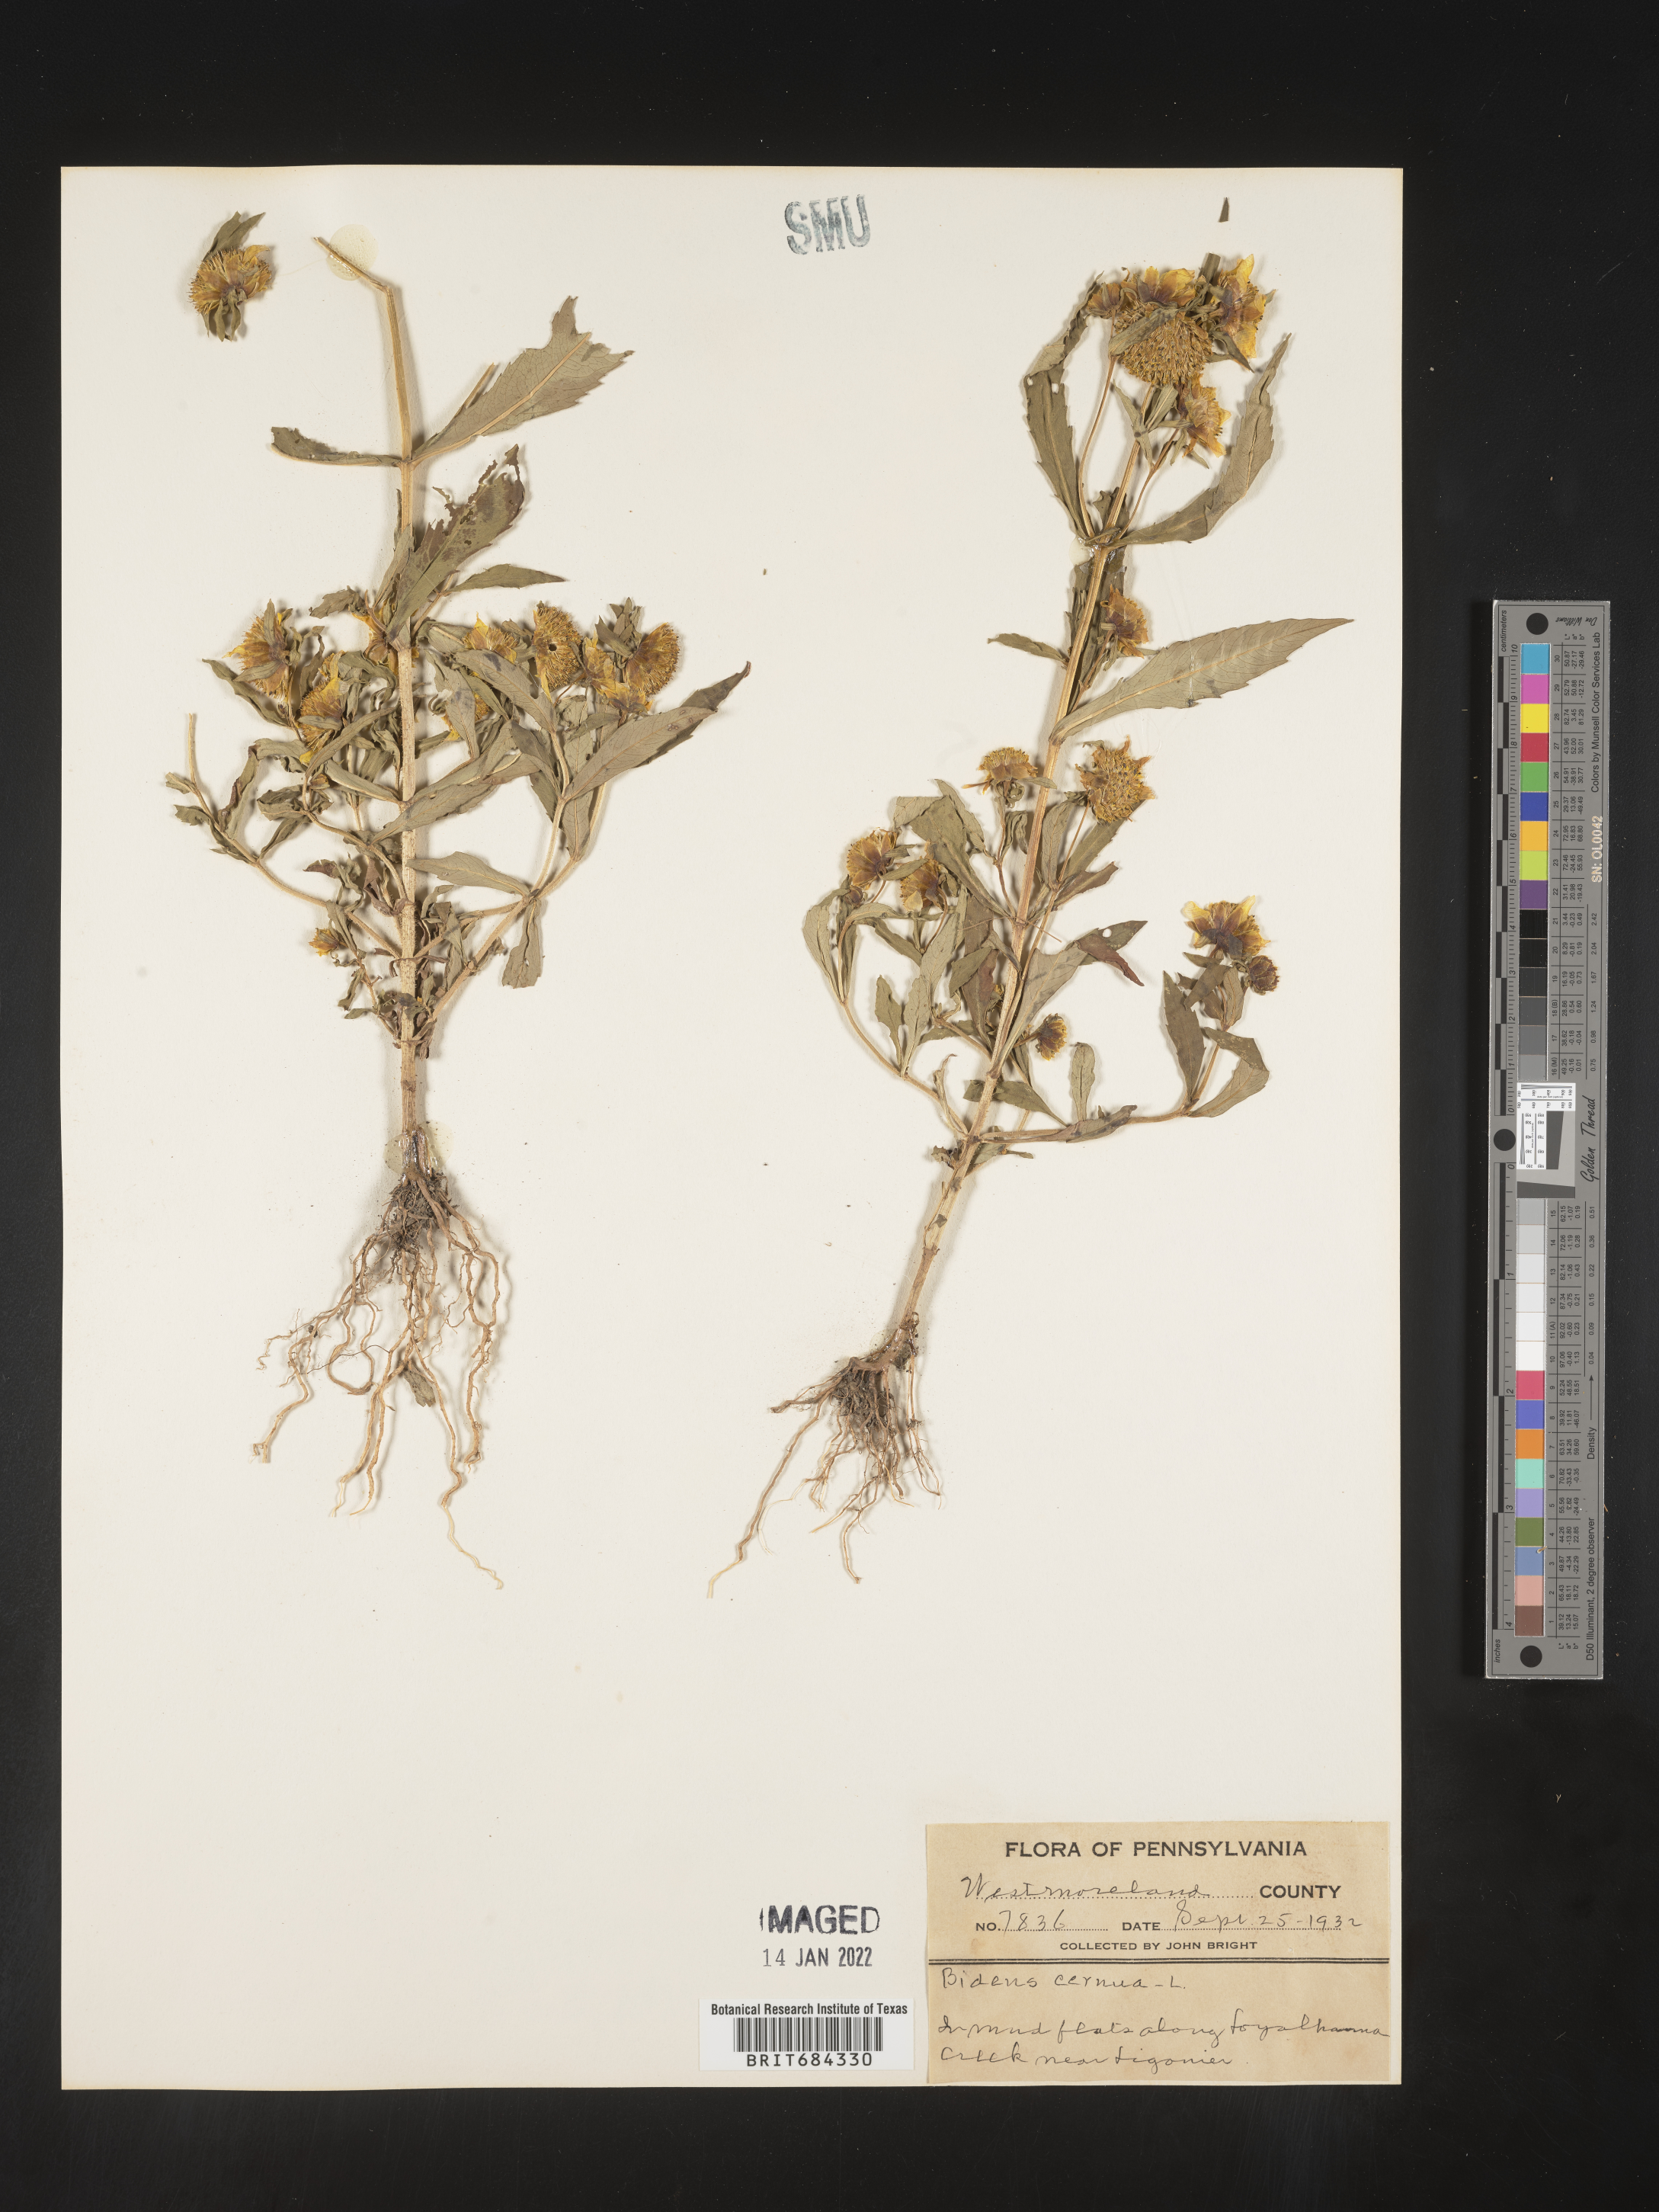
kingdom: Plantae
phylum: Tracheophyta
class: Magnoliopsida
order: Asterales
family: Asteraceae
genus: Bidens
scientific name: Bidens cernua
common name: Nodding bur-marigold
